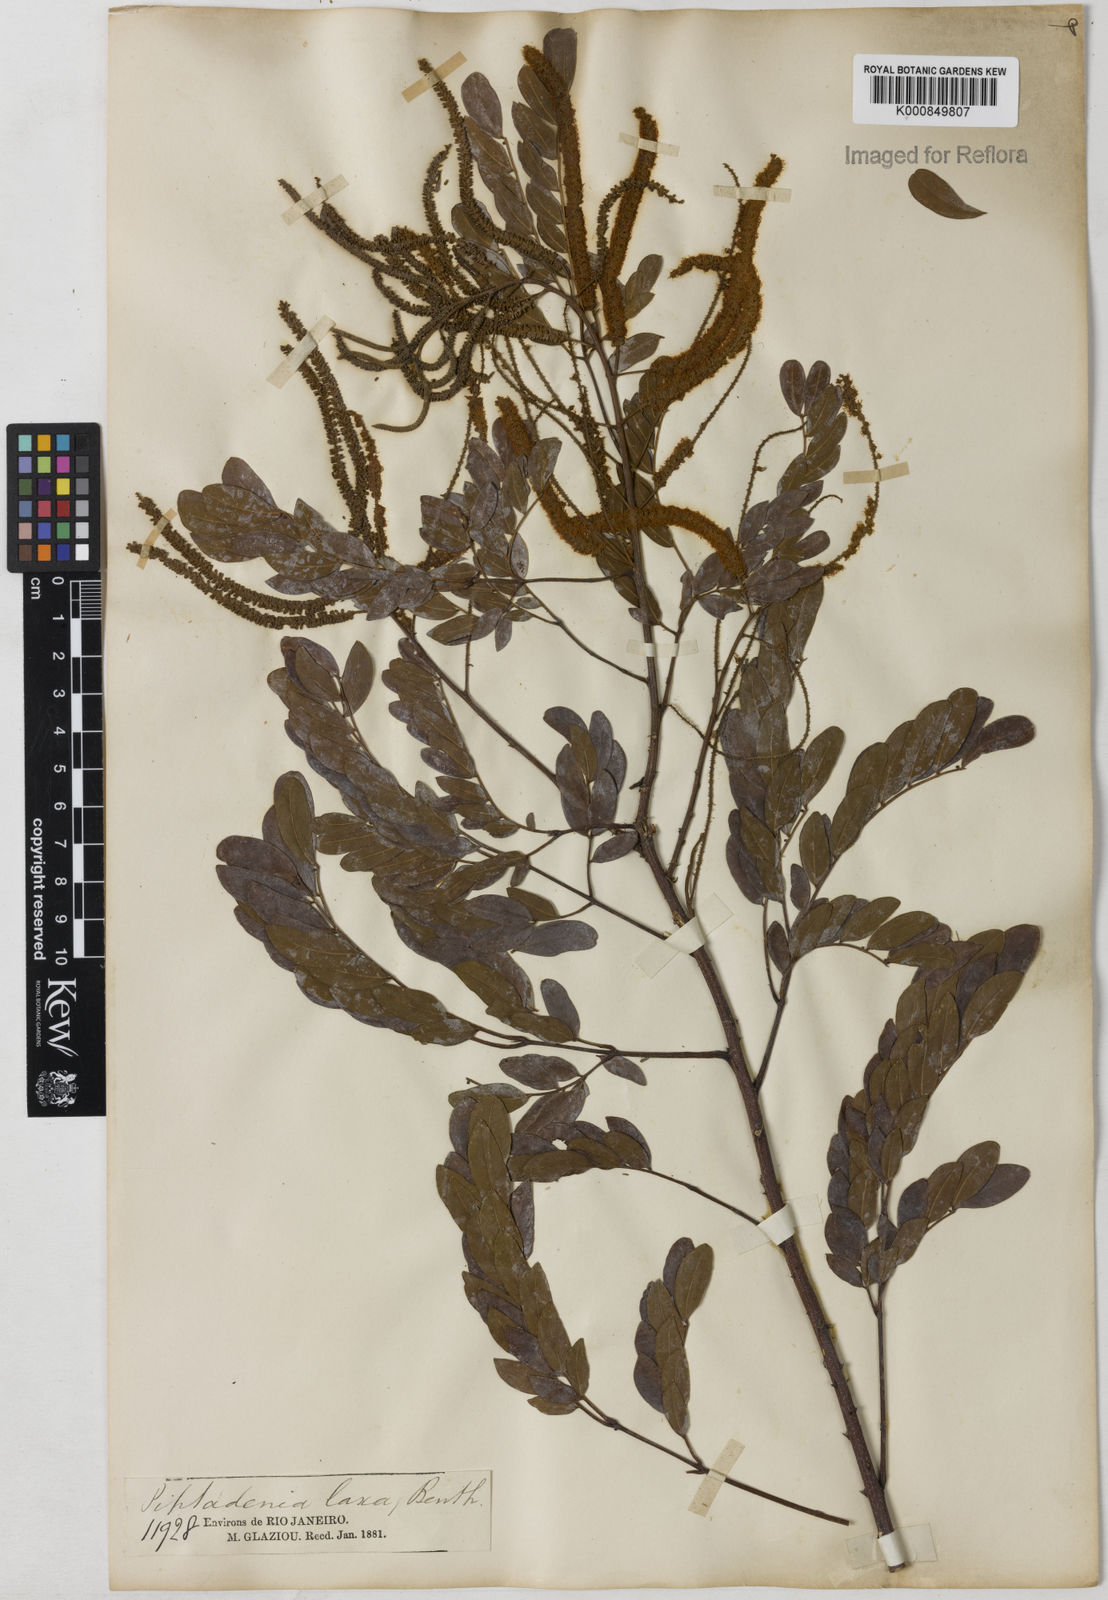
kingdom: Plantae
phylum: Tracheophyta
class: Magnoliopsida
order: Fabales
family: Fabaceae
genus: Piptadenia
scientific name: Piptadenia adiantoides
